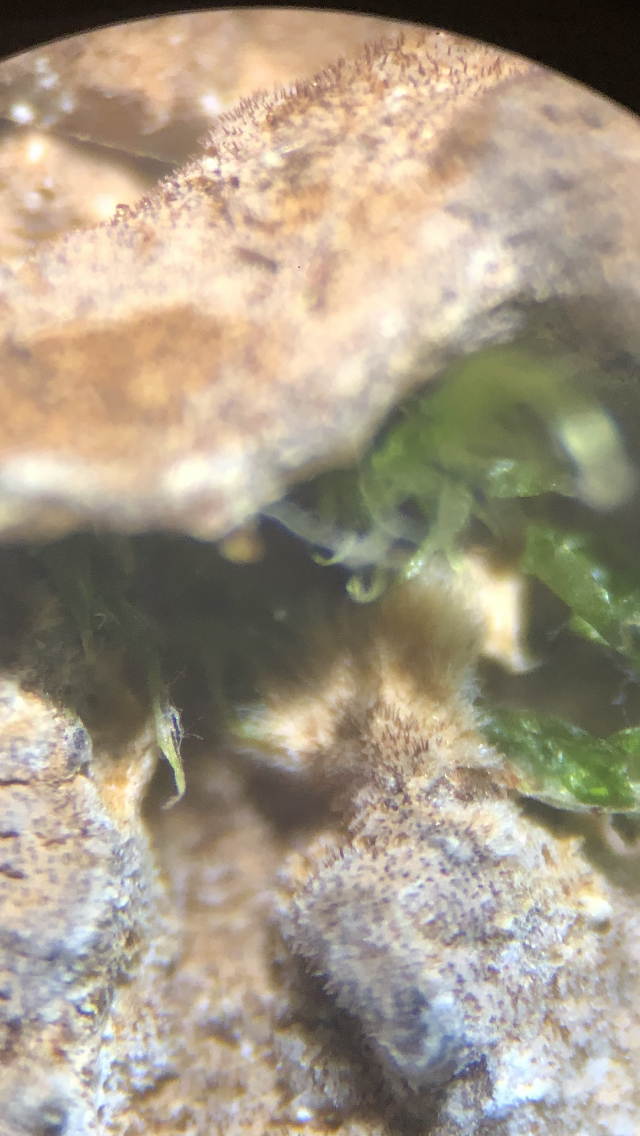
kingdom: Fungi
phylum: Basidiomycota
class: Agaricomycetes
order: Hymenochaetales
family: Hymenochaetaceae
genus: Hydnoporia
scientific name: Hydnoporia tabacina
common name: tobaksbrun ruslædersvamp
